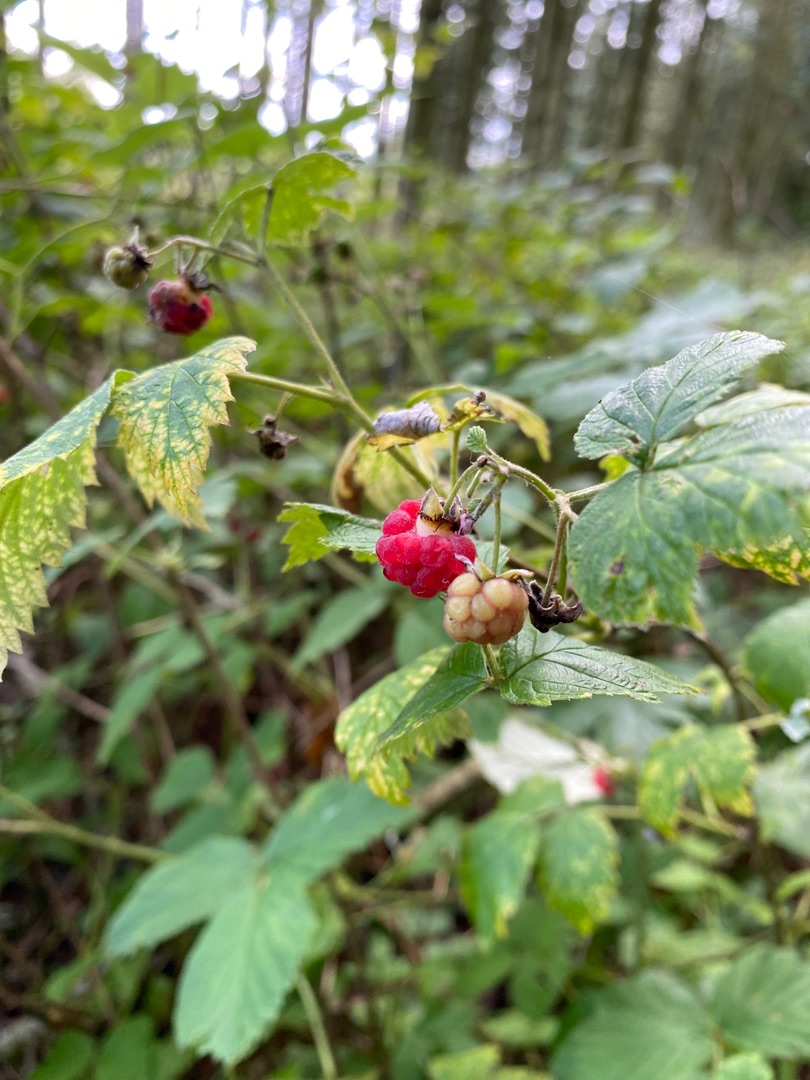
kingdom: Plantae
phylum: Tracheophyta
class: Magnoliopsida
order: Rosales
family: Rosaceae
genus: Rubus
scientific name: Rubus idaeus
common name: Hindbær
